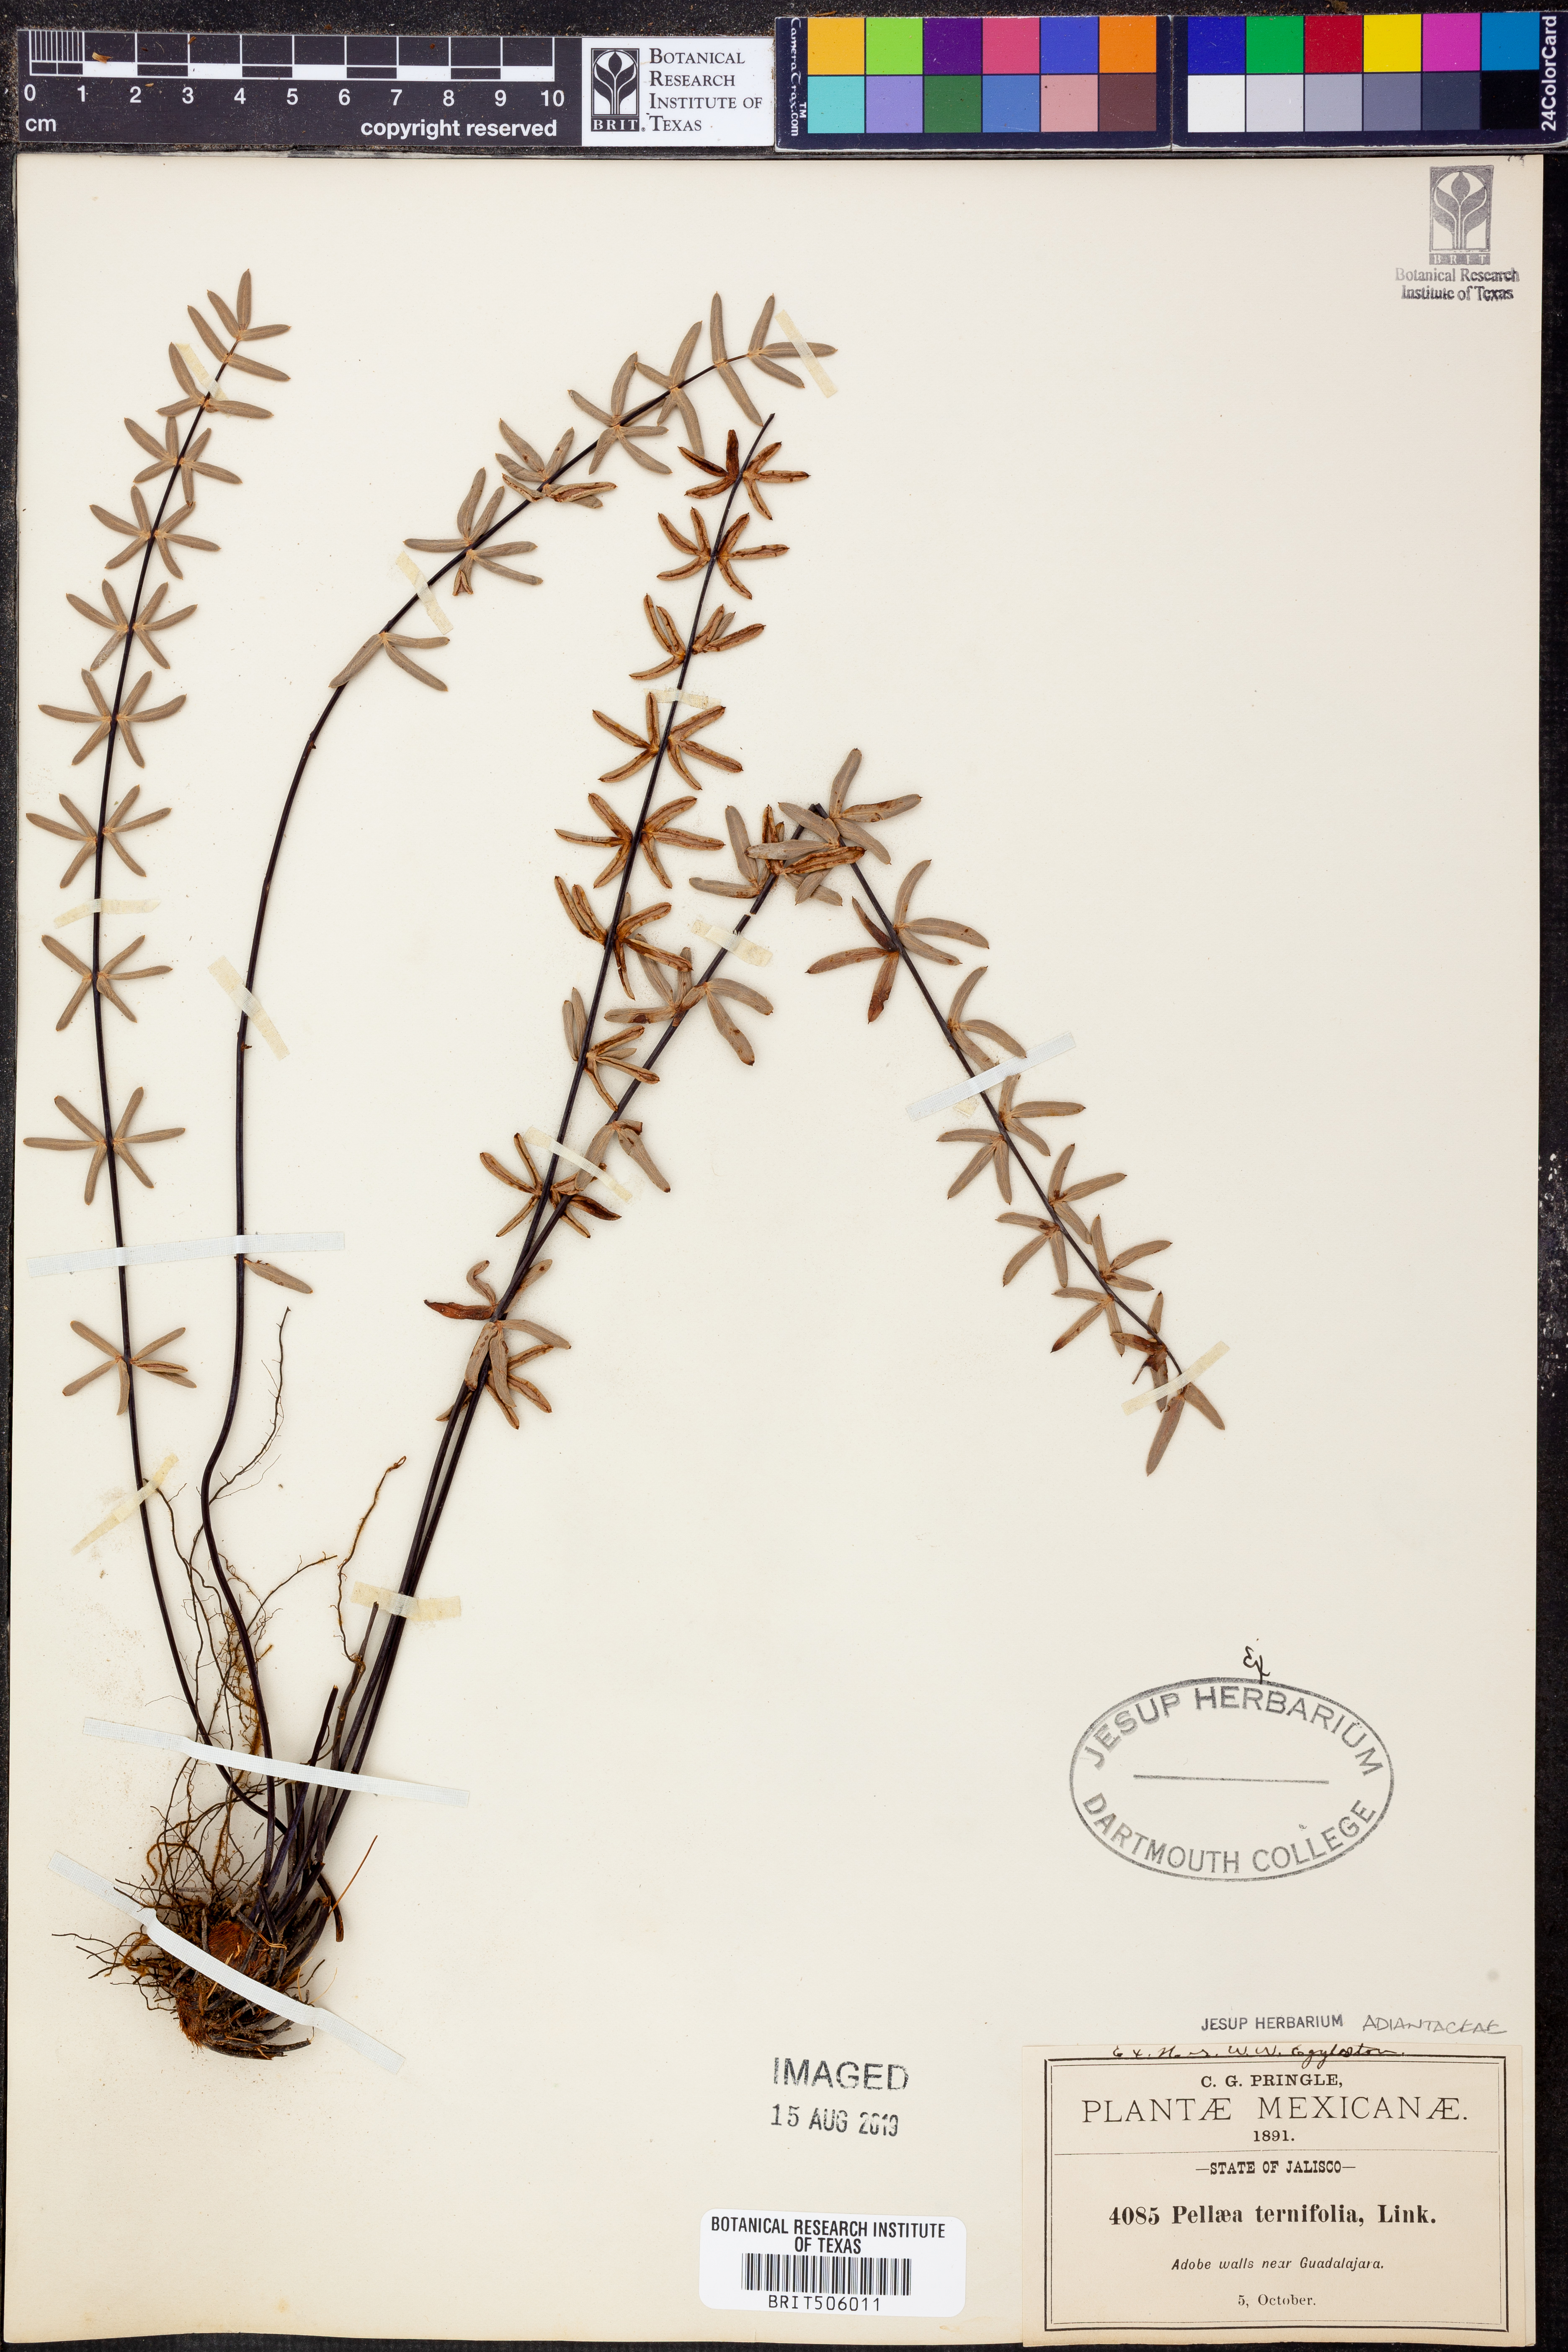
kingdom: Plantae
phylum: Tracheophyta
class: Polypodiopsida
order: Polypodiales
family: Pteridaceae
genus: Pellaea
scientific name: Pellaea ternifolia
